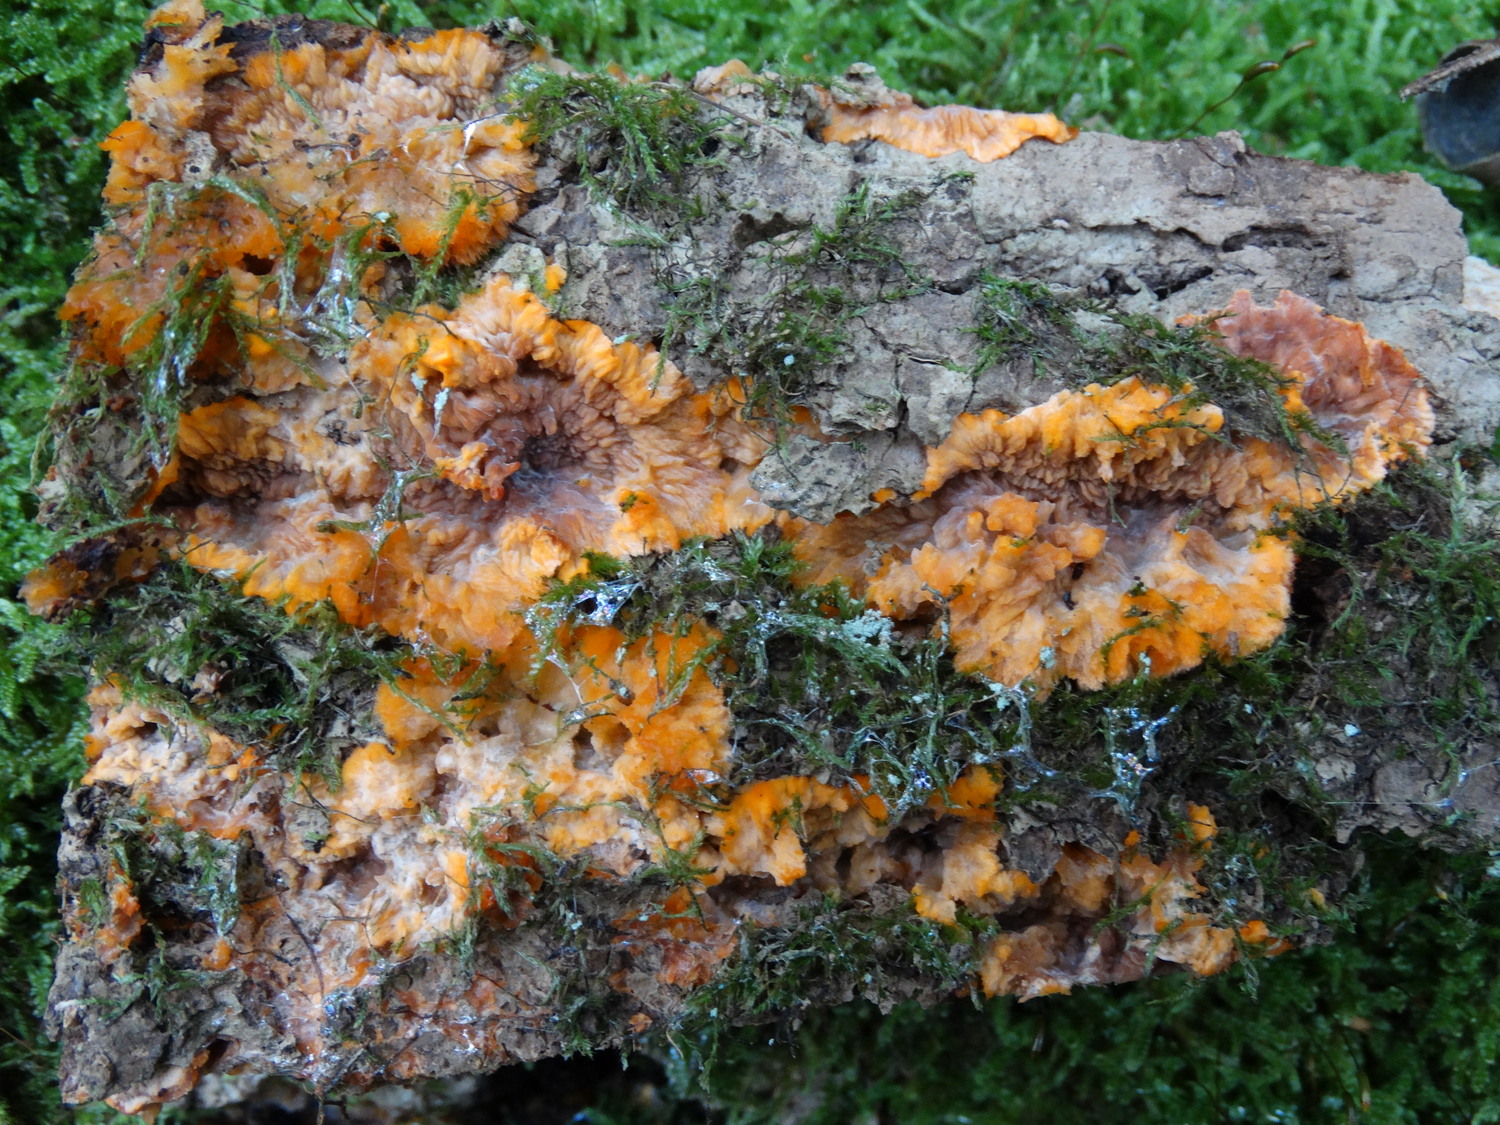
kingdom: Fungi
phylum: Basidiomycota
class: Agaricomycetes
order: Polyporales
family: Meruliaceae
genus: Phlebia
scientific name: Phlebia radiata
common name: stråle-åresvamp
